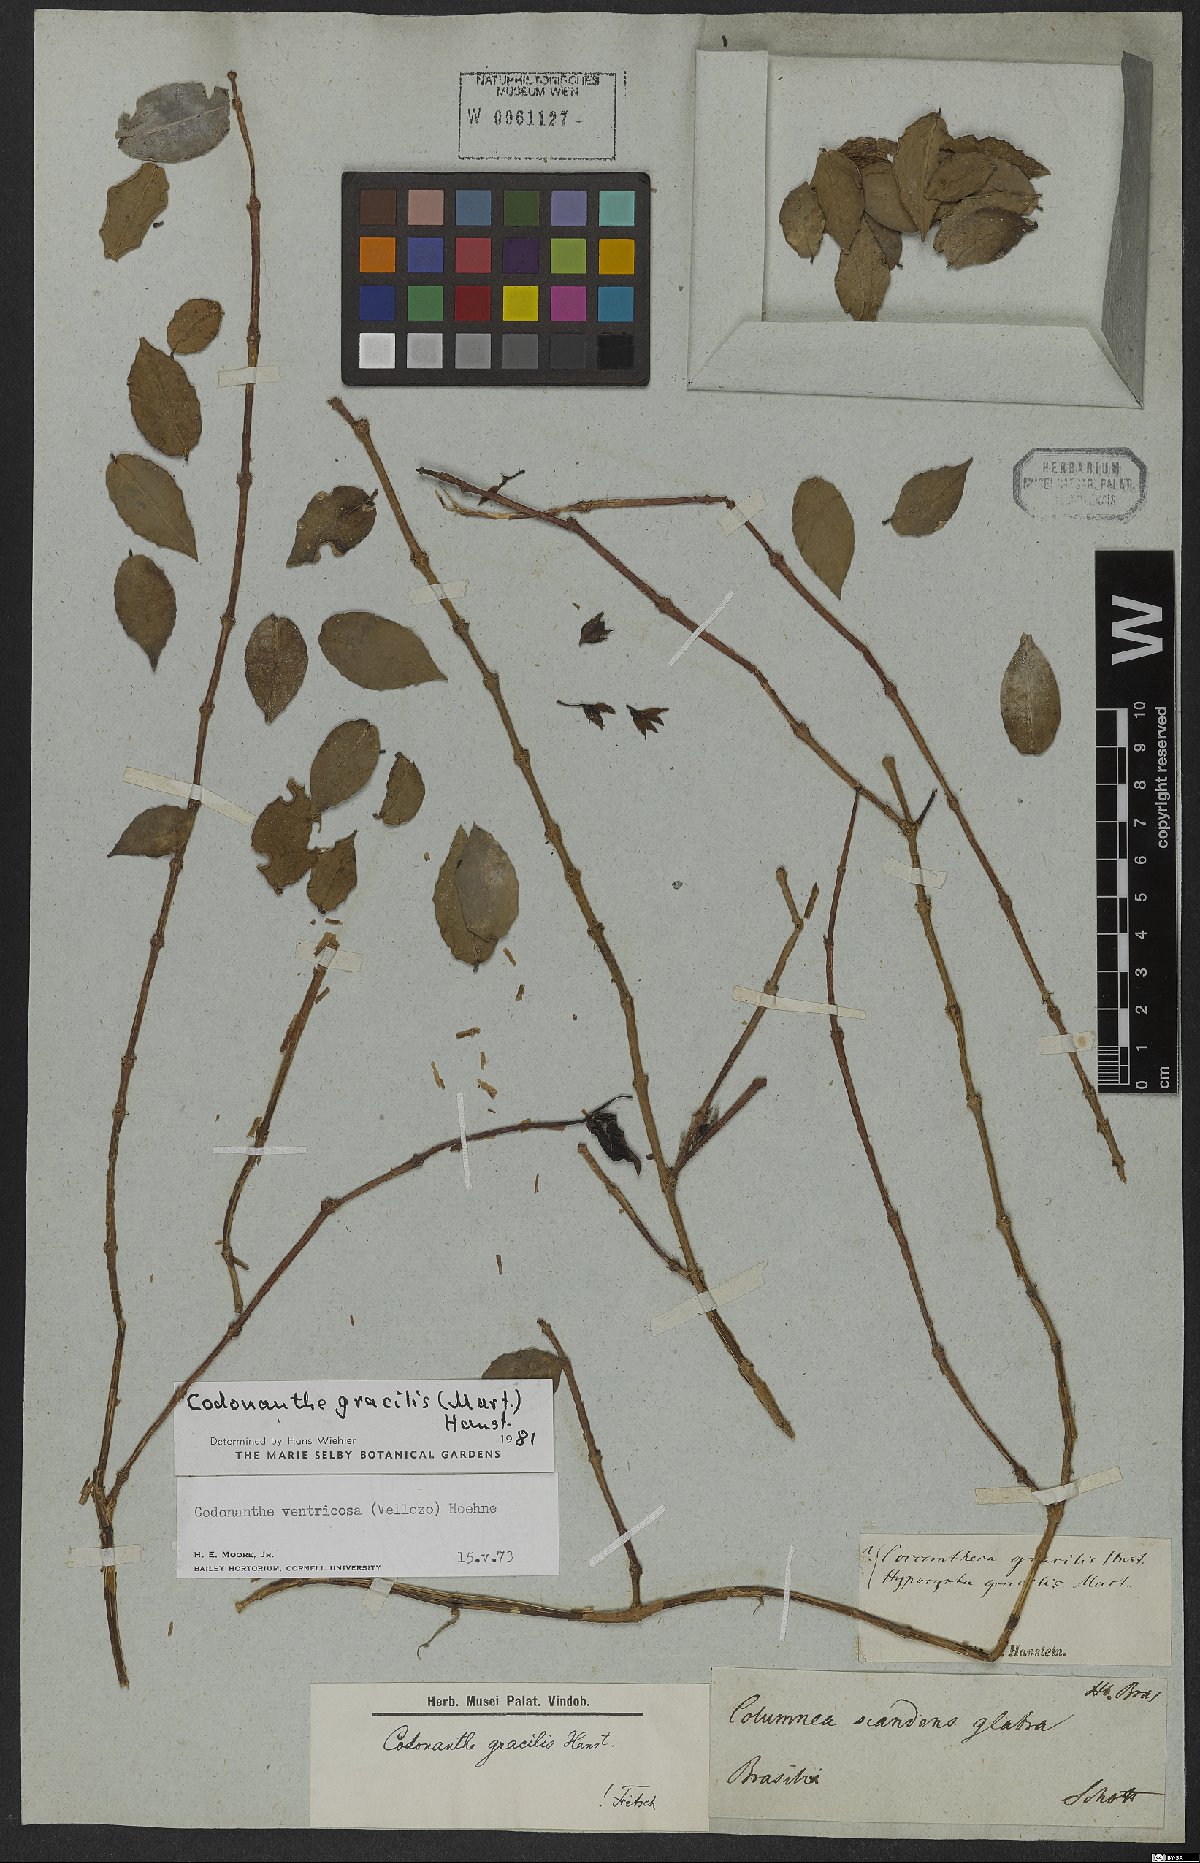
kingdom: Plantae
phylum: Tracheophyta
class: Magnoliopsida
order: Lamiales
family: Gesneriaceae
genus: Codonanthe
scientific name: Codonanthe gracilis
